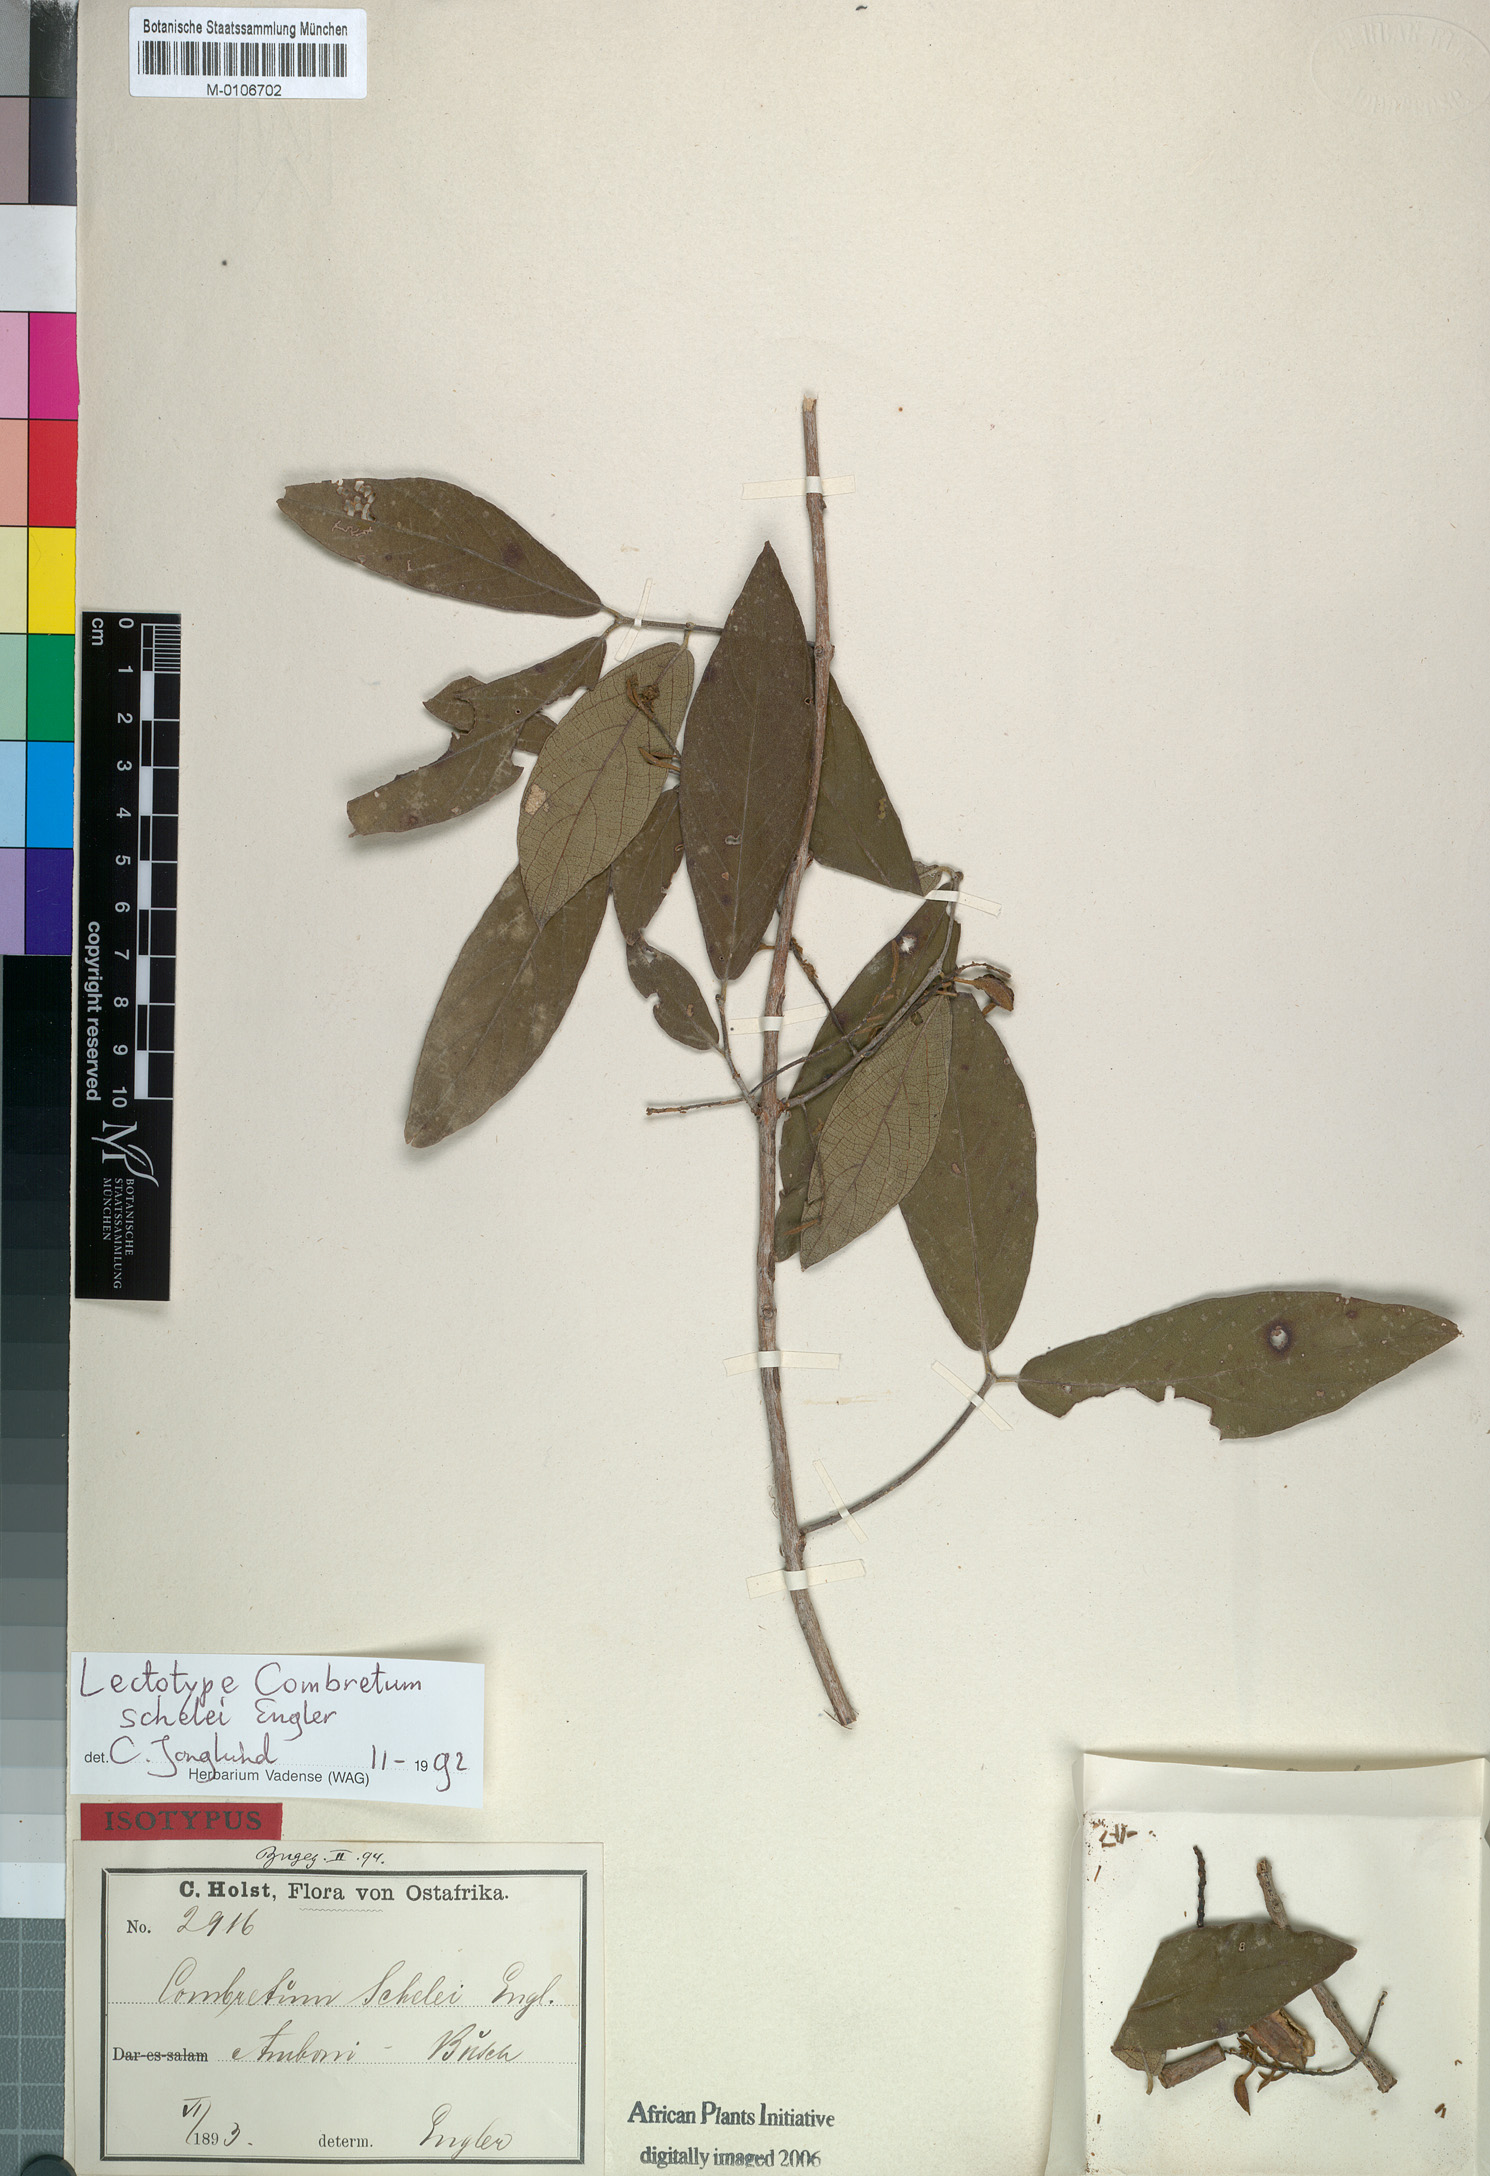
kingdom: Plantae
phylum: Tracheophyta
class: Magnoliopsida
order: Myrtales
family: Combretaceae
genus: Combretum
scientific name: Combretum molle
